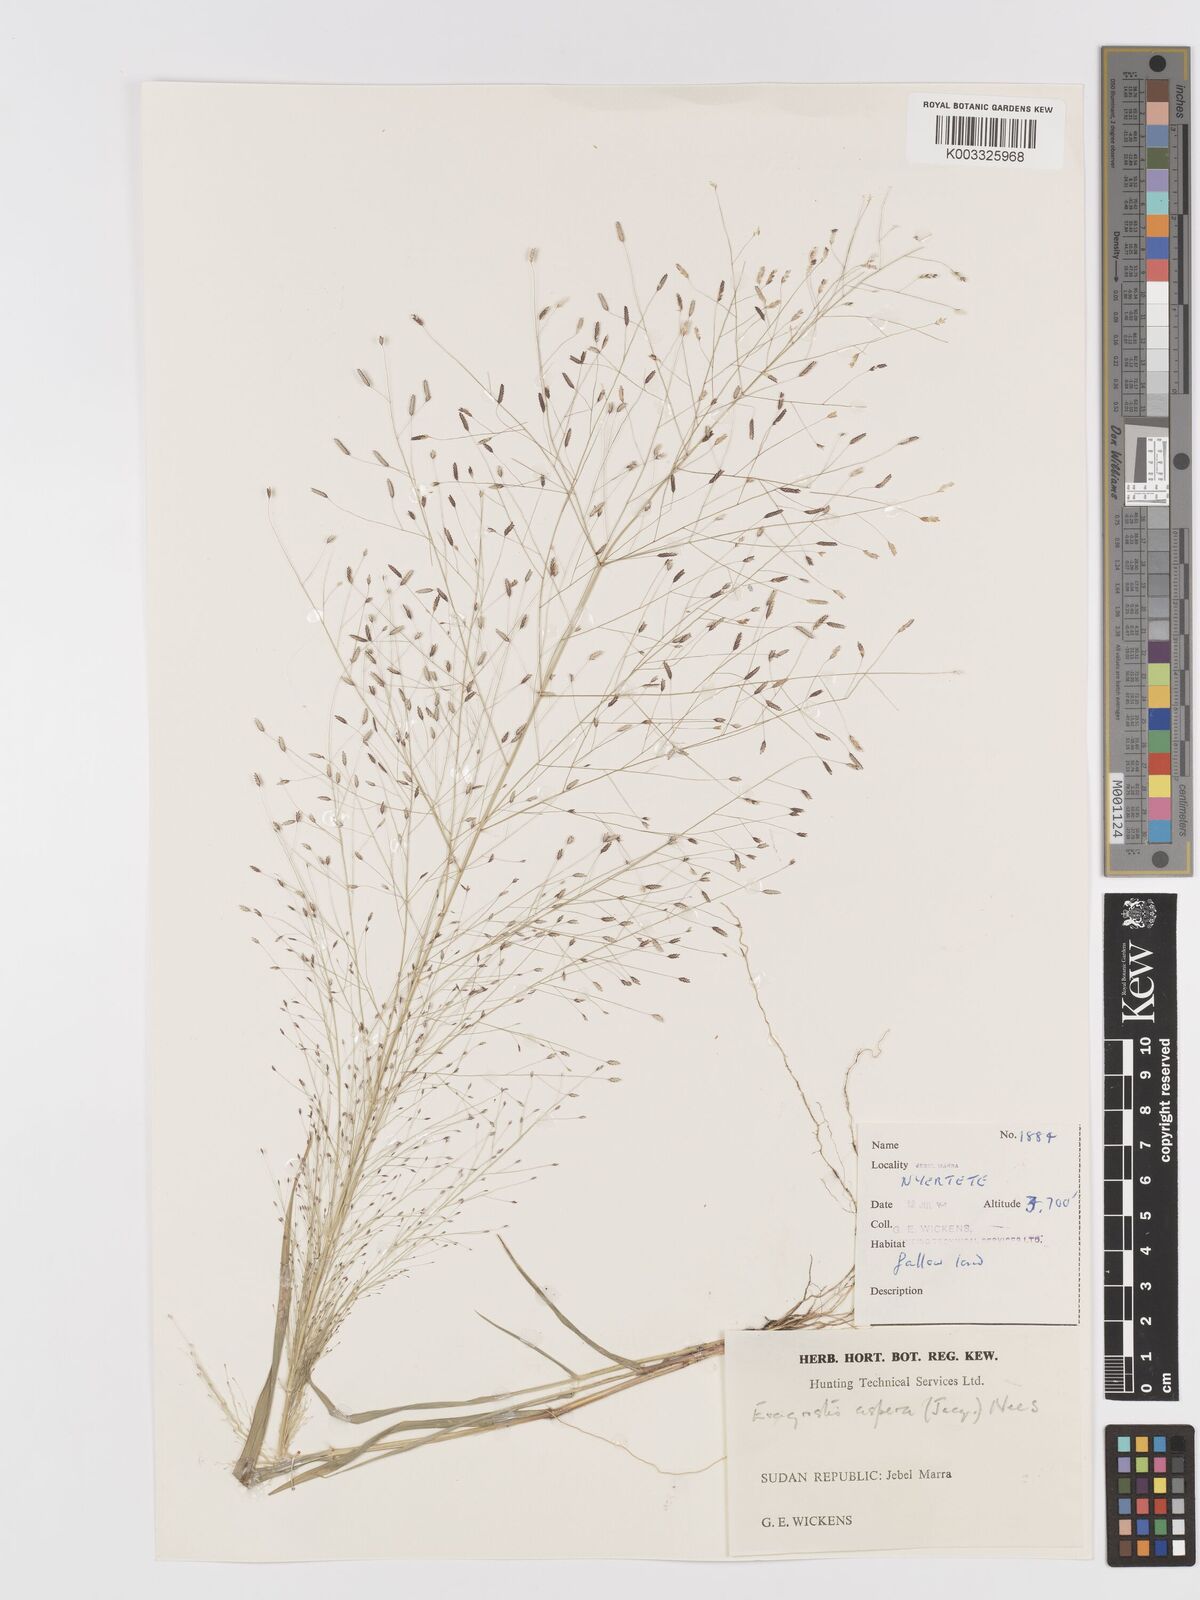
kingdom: Plantae
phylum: Tracheophyta
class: Liliopsida
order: Poales
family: Poaceae
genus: Eragrostis
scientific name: Eragrostis aspera
